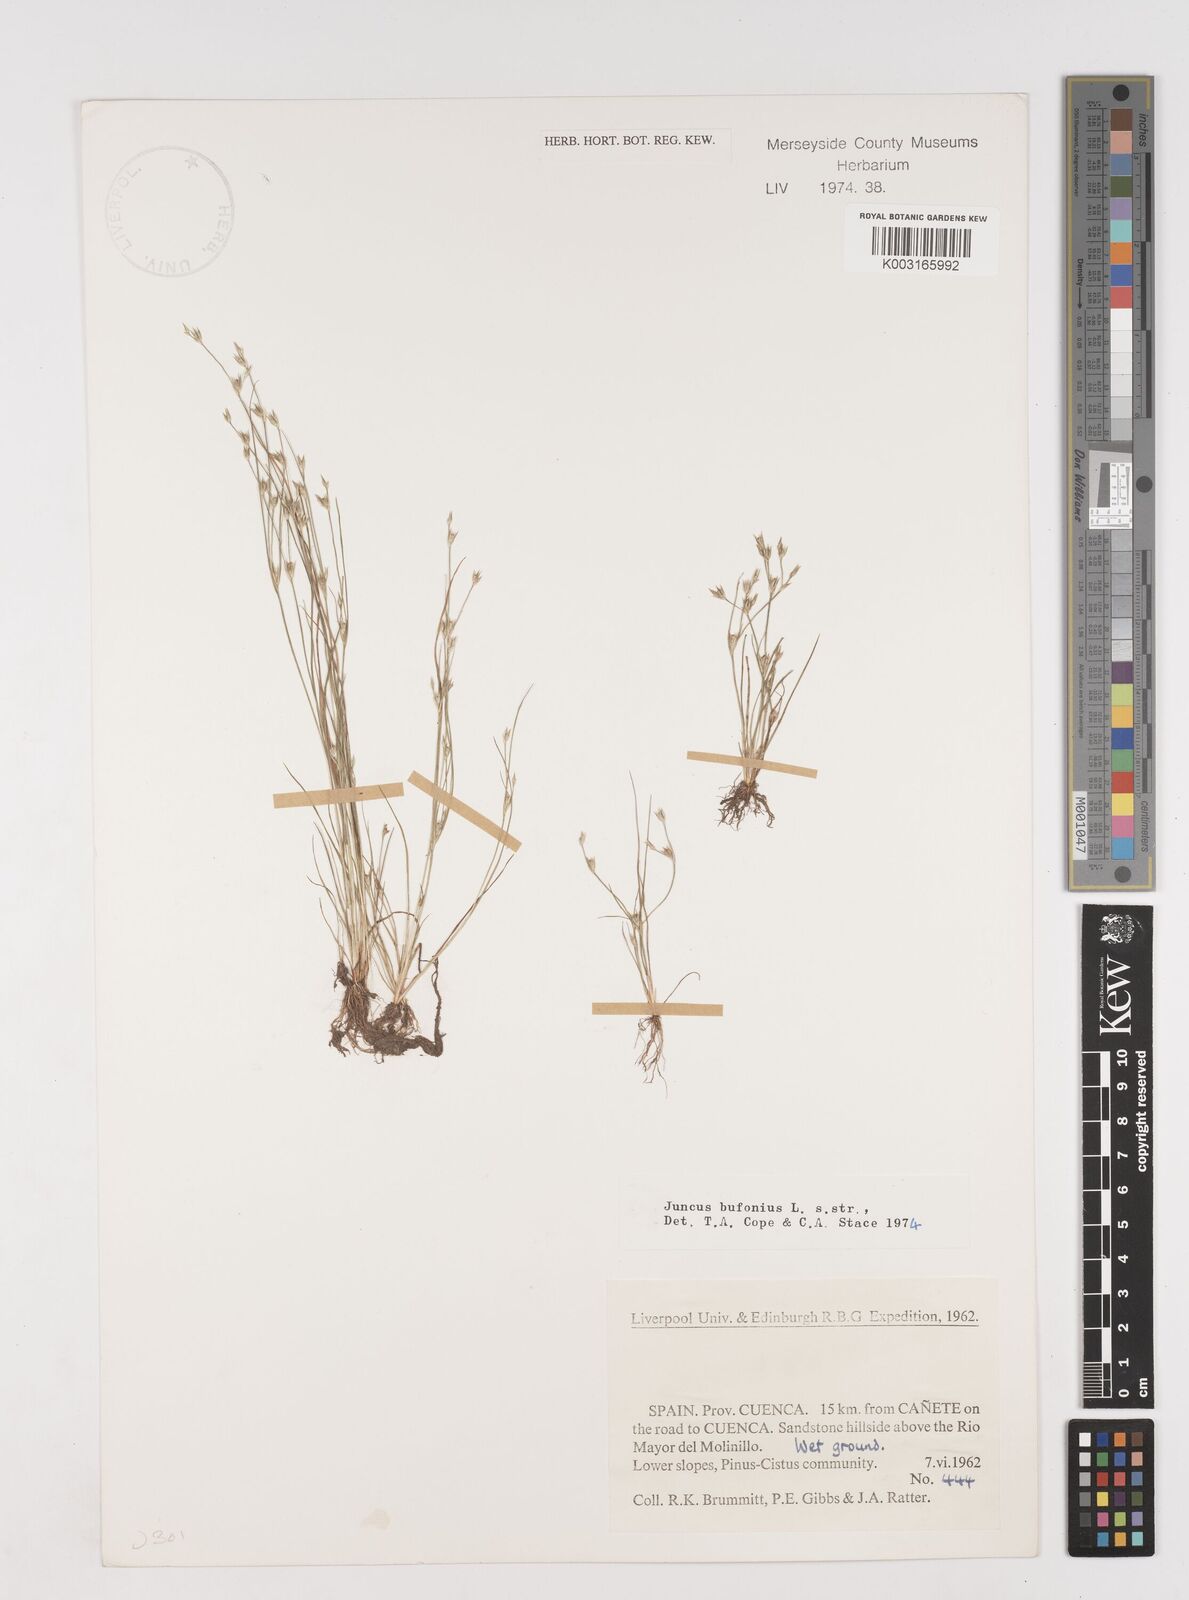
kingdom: Plantae
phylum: Tracheophyta
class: Liliopsida
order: Poales
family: Juncaceae
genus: Juncus
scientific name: Juncus bufonius
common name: Toad rush
